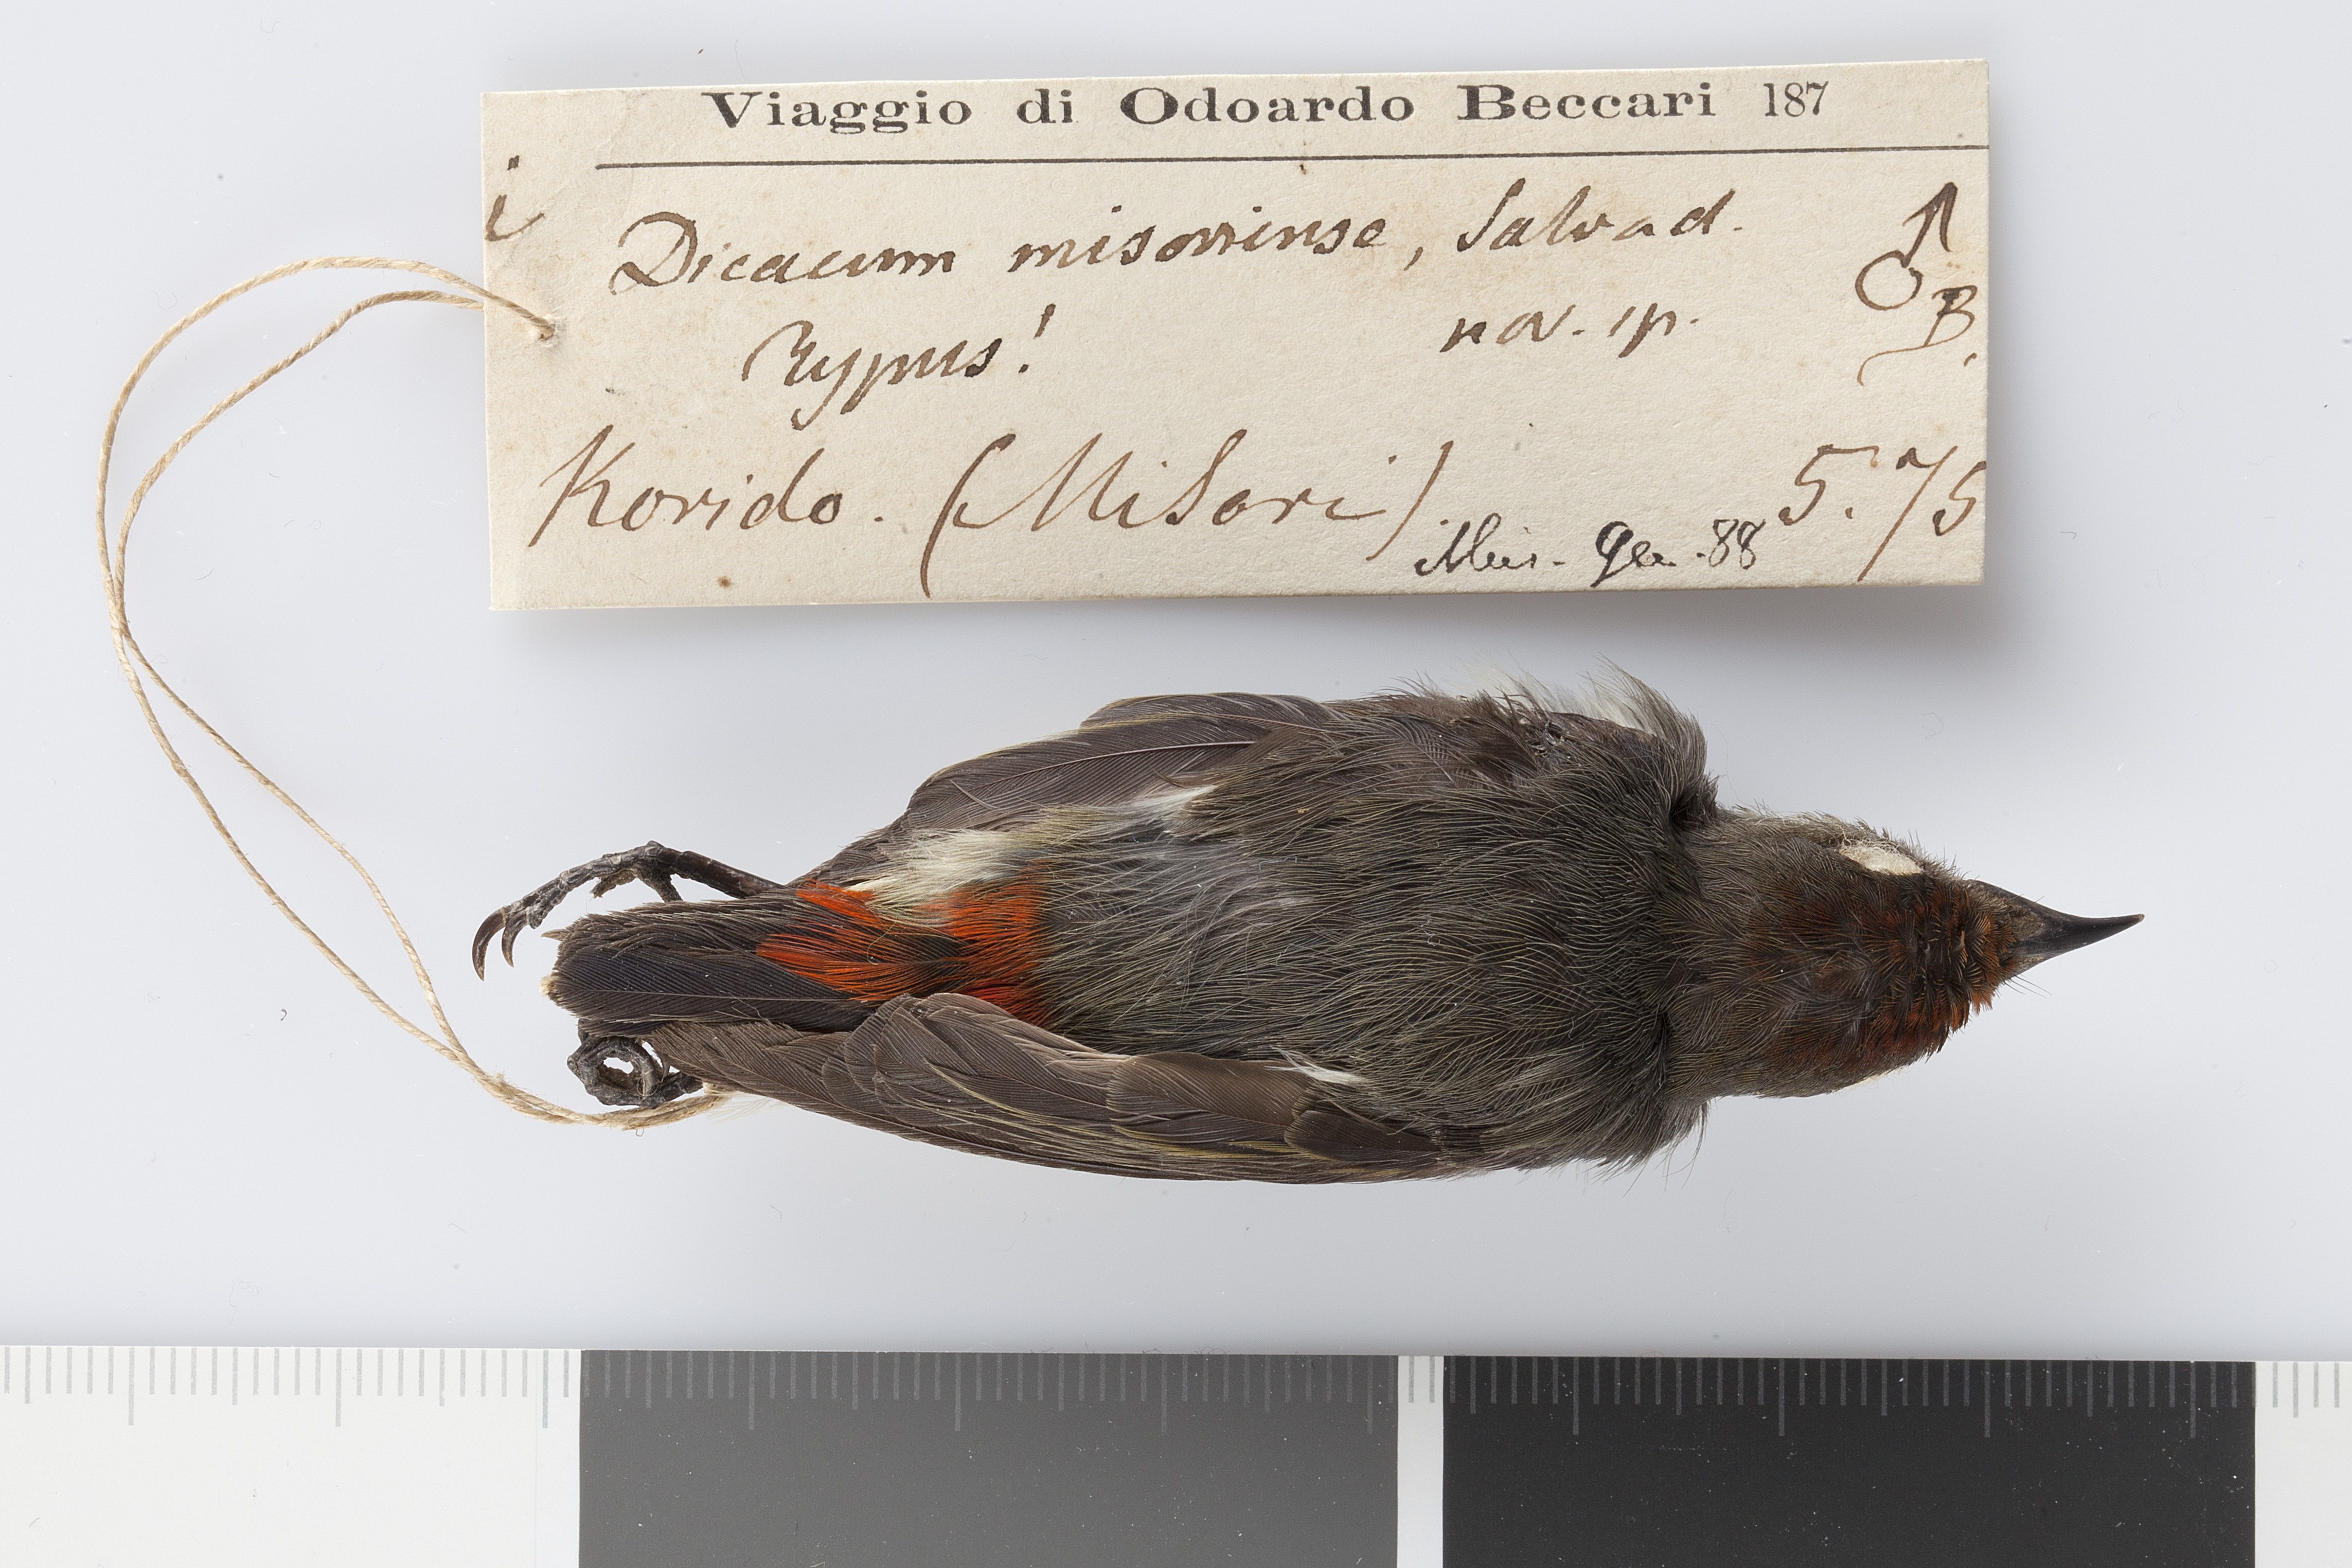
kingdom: Animalia
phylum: Chordata
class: Aves
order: Passeriformes
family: Dicaeidae
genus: Dicaeum
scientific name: Dicaeum geelvinkianum
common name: Red-capped flowerpecker
